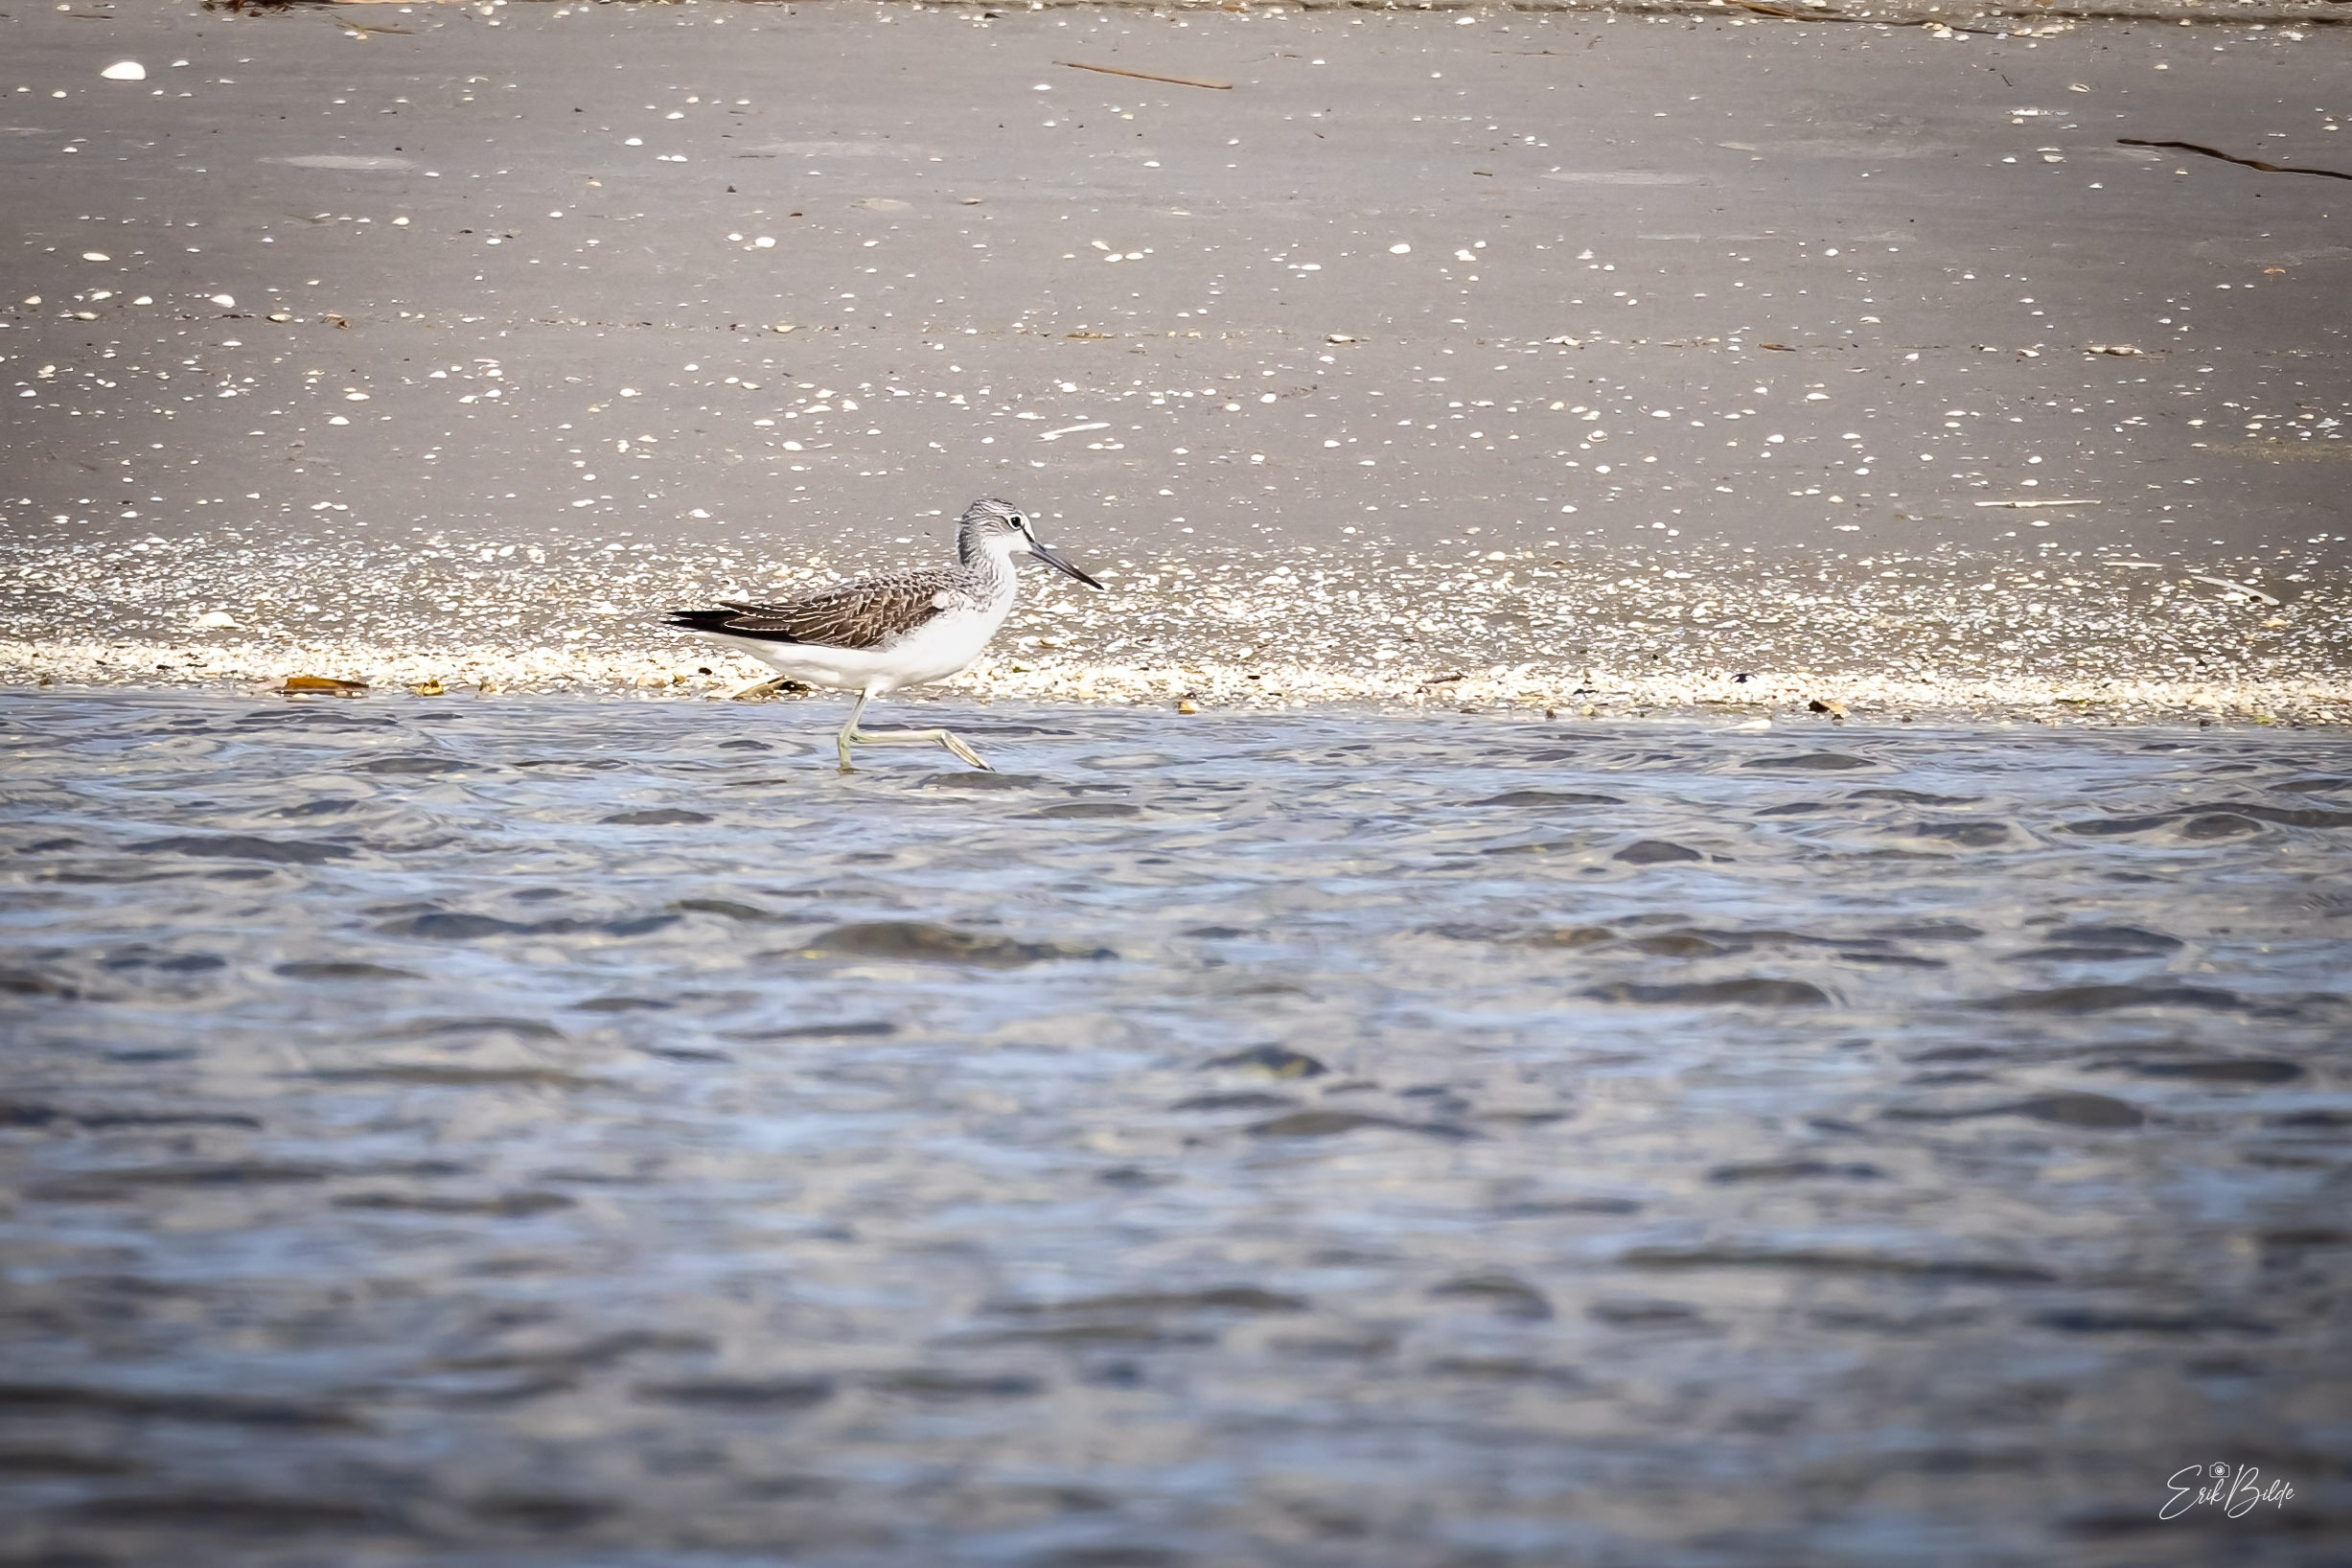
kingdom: Animalia
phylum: Chordata
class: Aves
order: Charadriiformes
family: Scolopacidae
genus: Tringa
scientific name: Tringa nebularia
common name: Hvidklire
